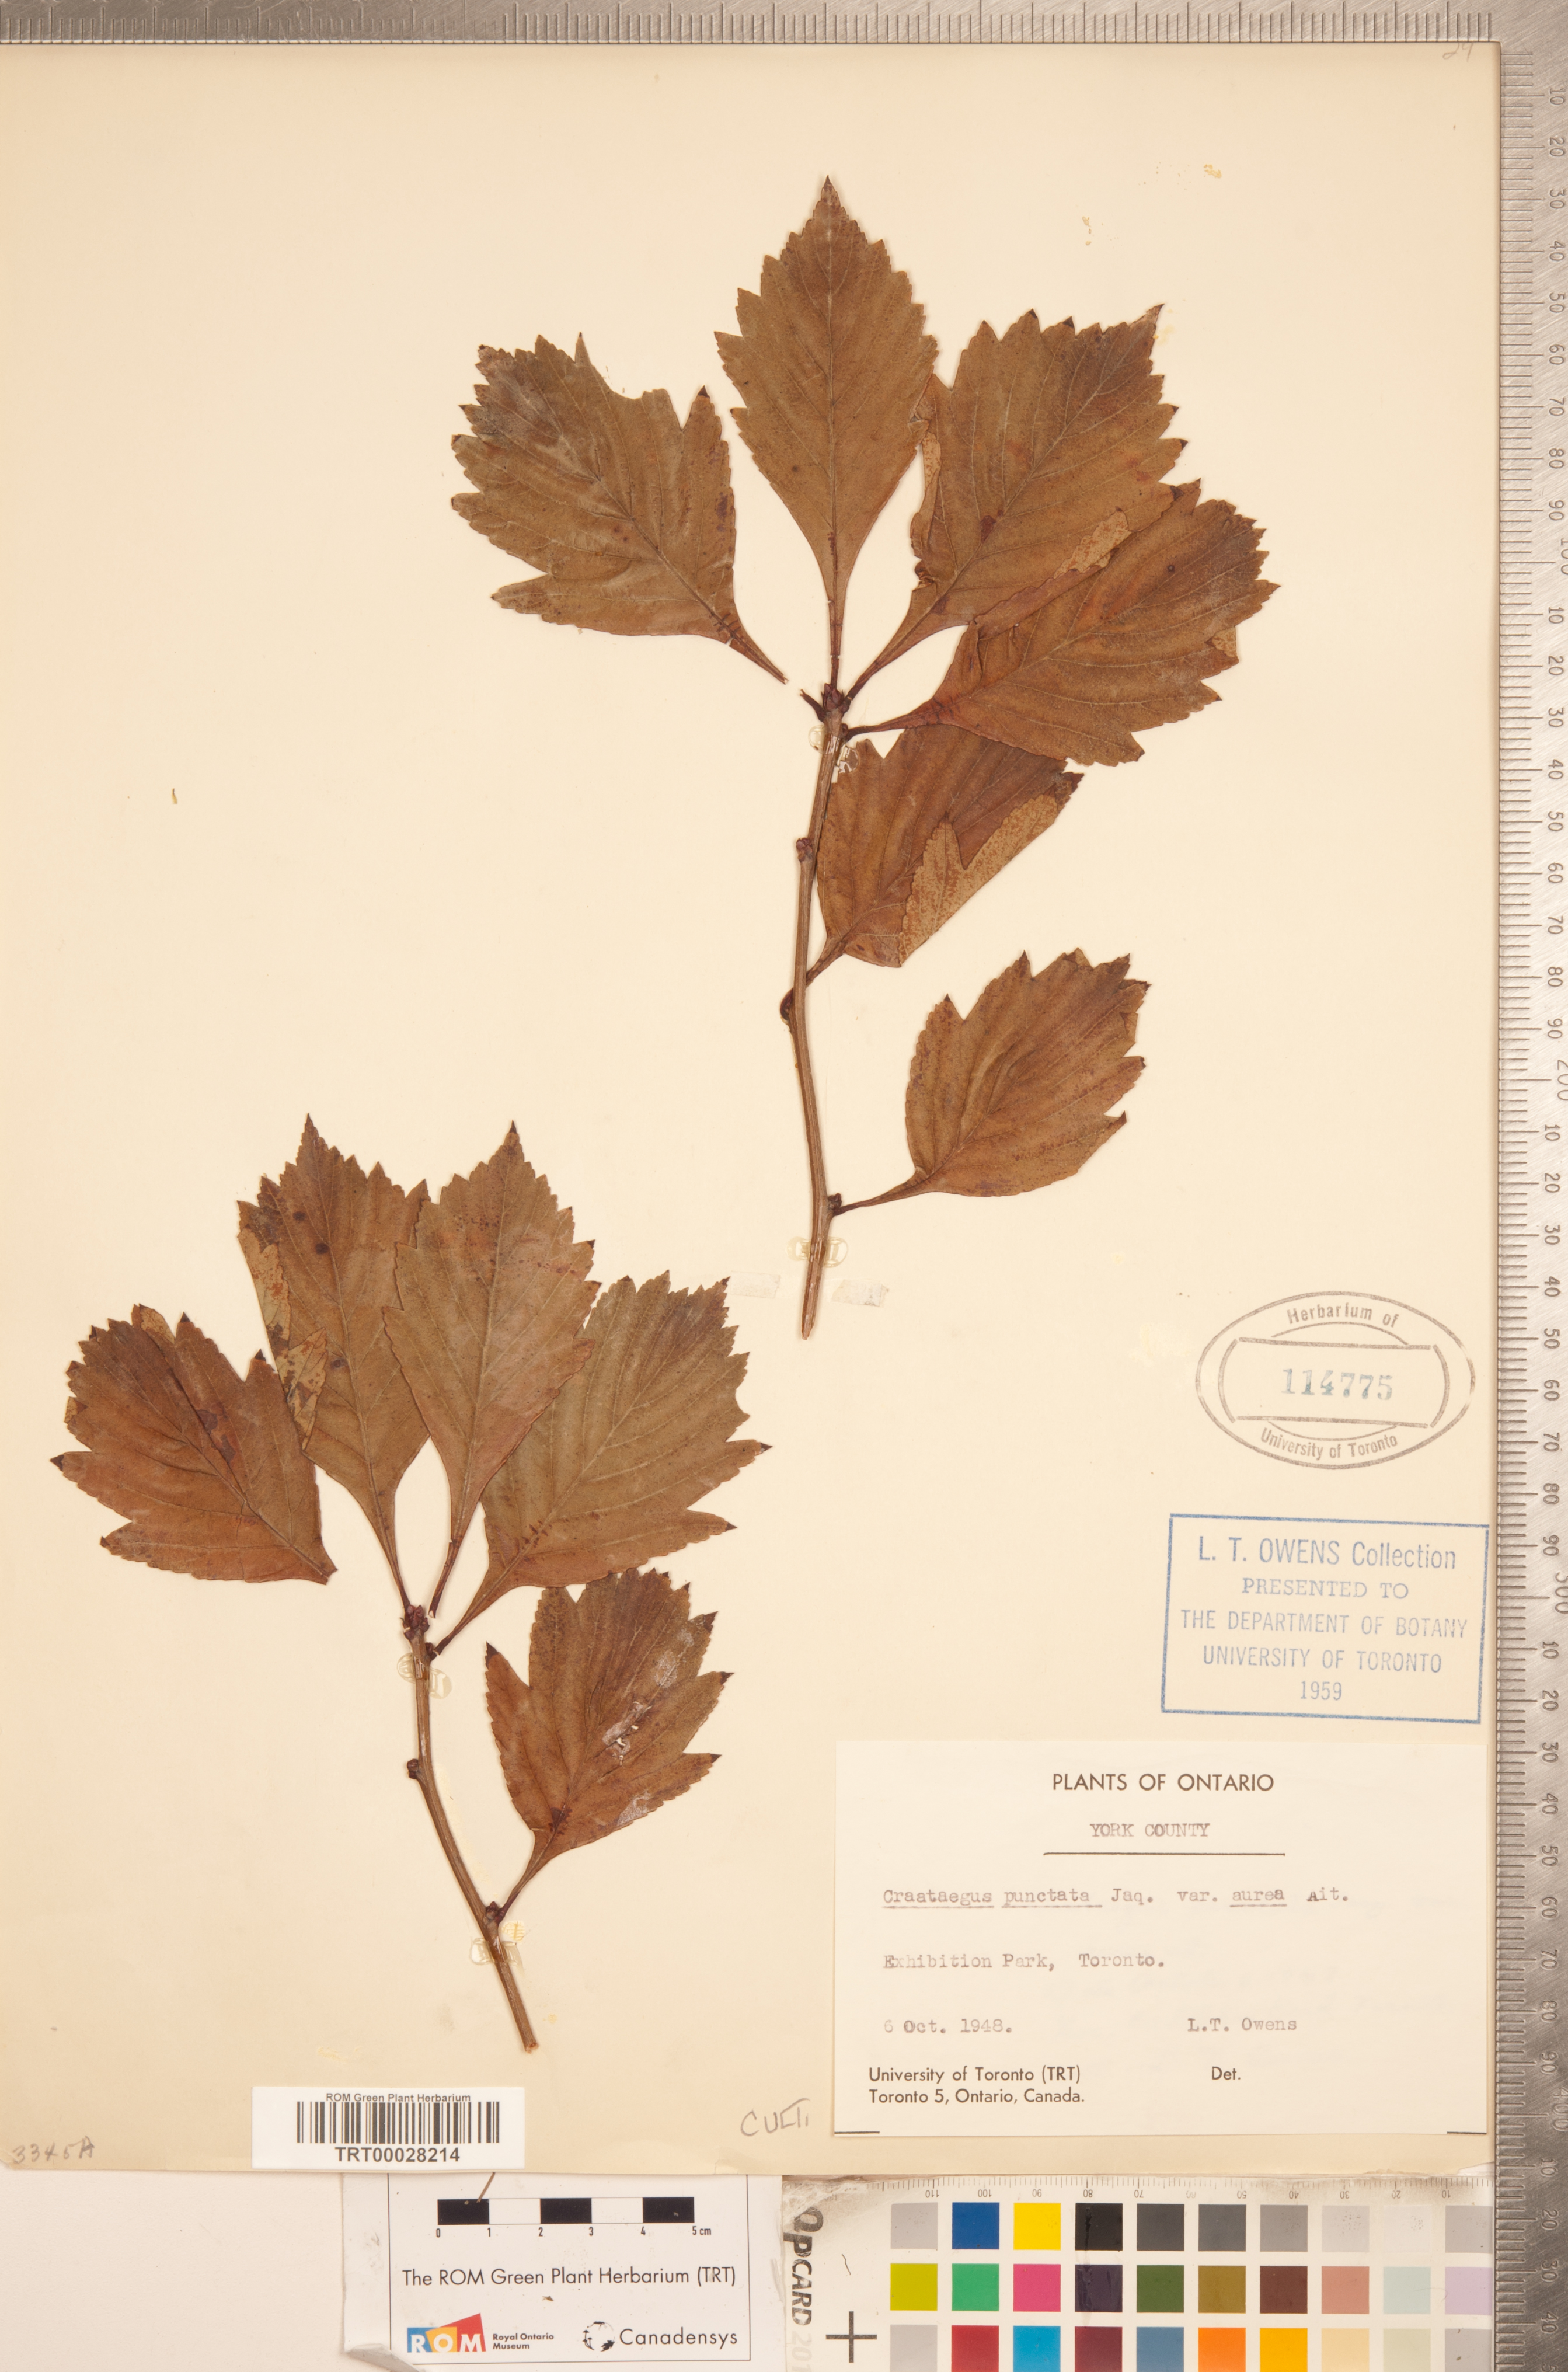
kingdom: Plantae
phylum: Tracheophyta
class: Magnoliopsida
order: Rosales
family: Rosaceae
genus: Crataegus
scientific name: Crataegus punctata
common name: Dotted hawthorn
